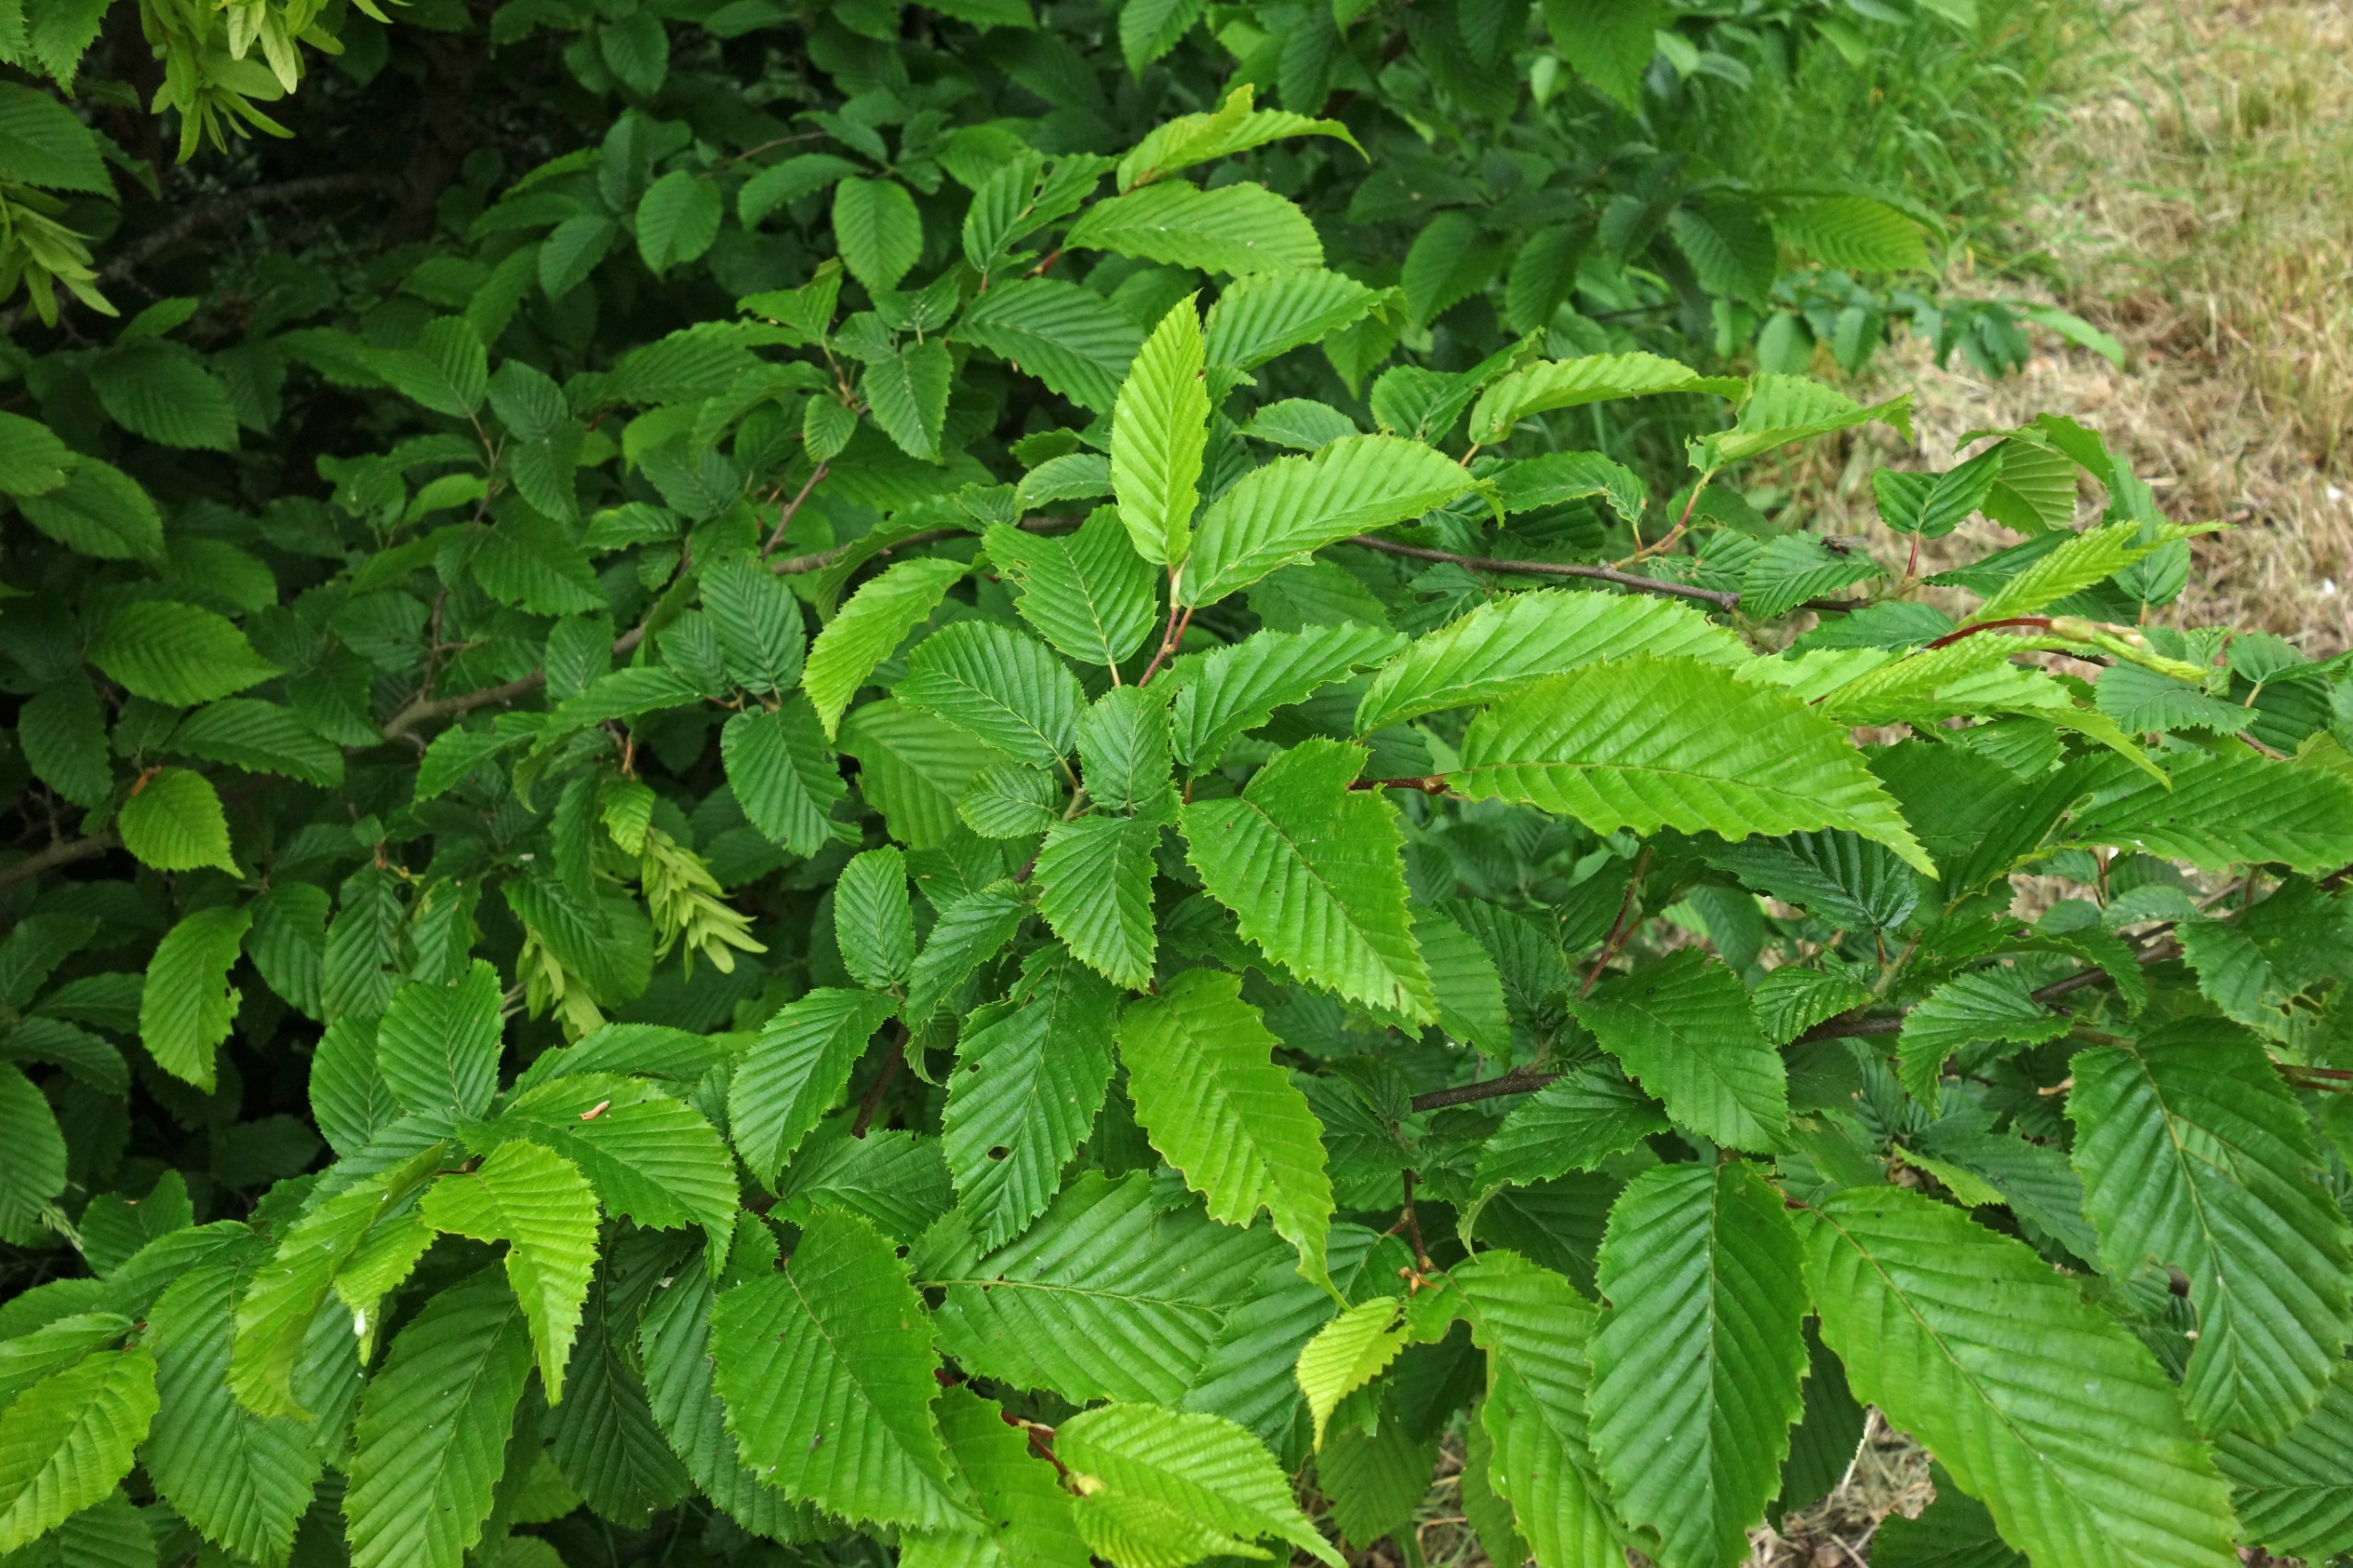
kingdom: Plantae
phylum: Tracheophyta
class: Magnoliopsida
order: Fagales
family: Betulaceae
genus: Carpinus
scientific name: Carpinus betulus
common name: Avnbøg
